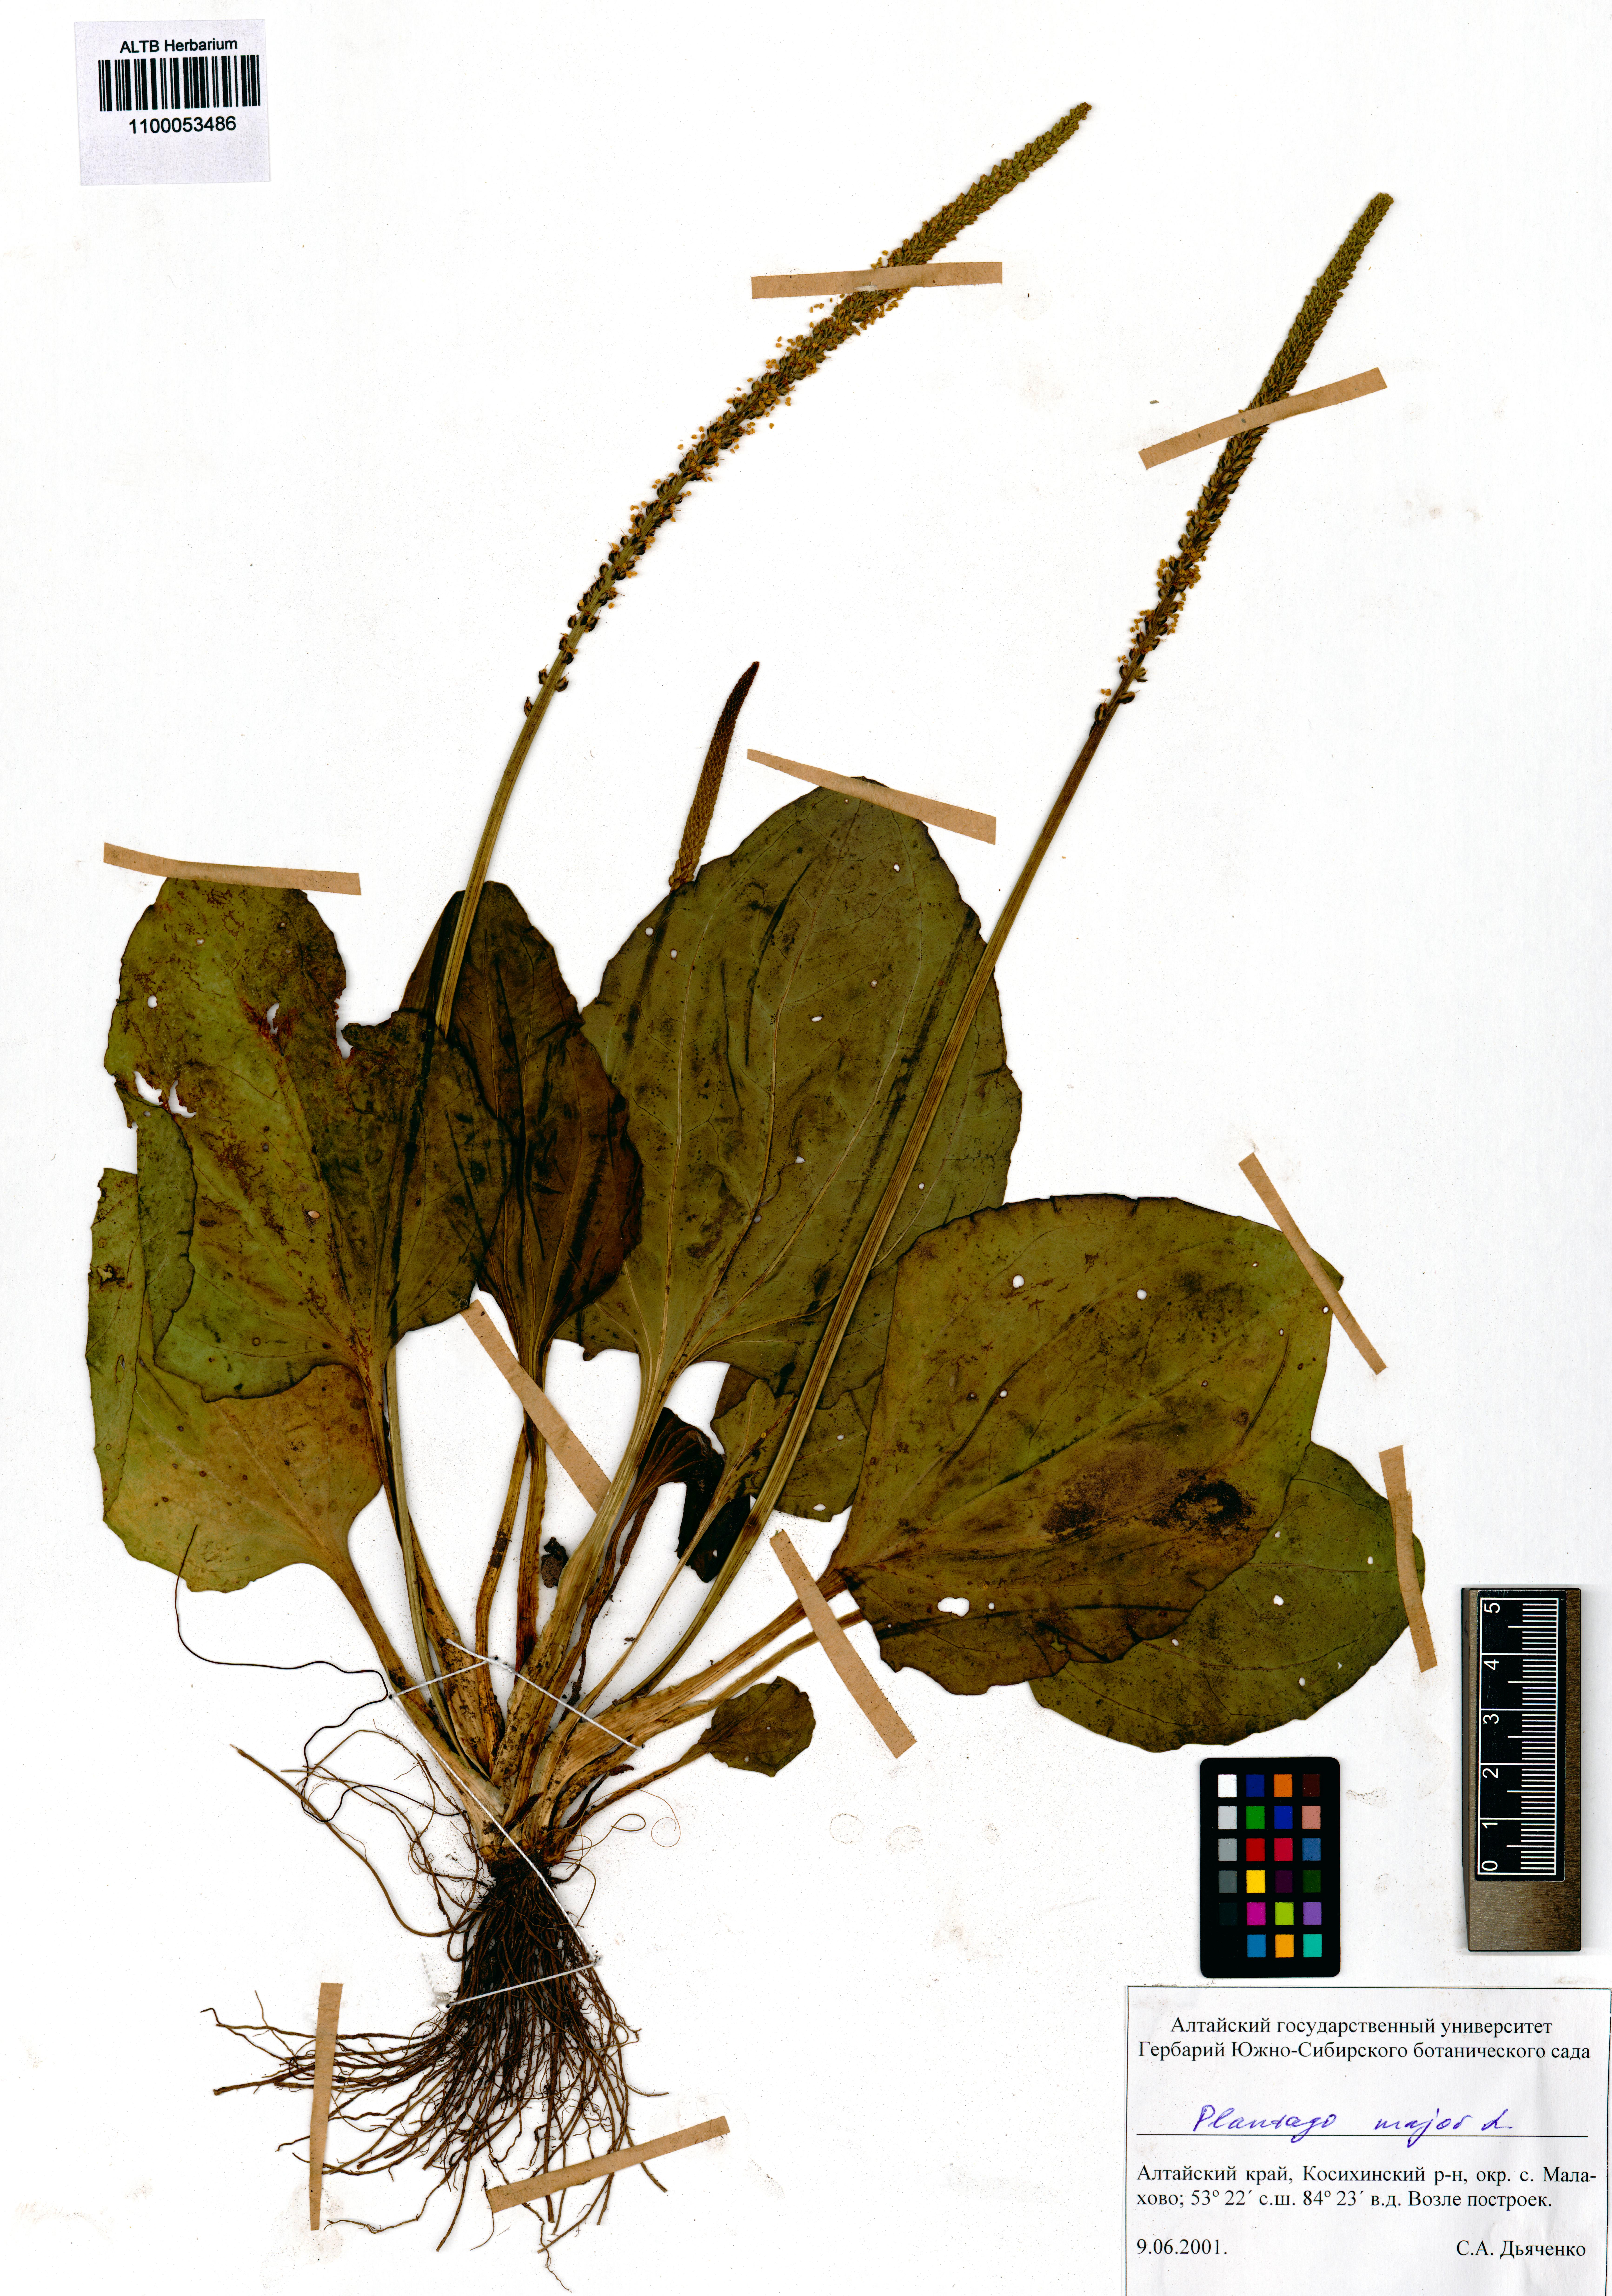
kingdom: Plantae
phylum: Tracheophyta
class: Magnoliopsida
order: Lamiales
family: Plantaginaceae
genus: Plantago
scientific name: Plantago major
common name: Common plantain
